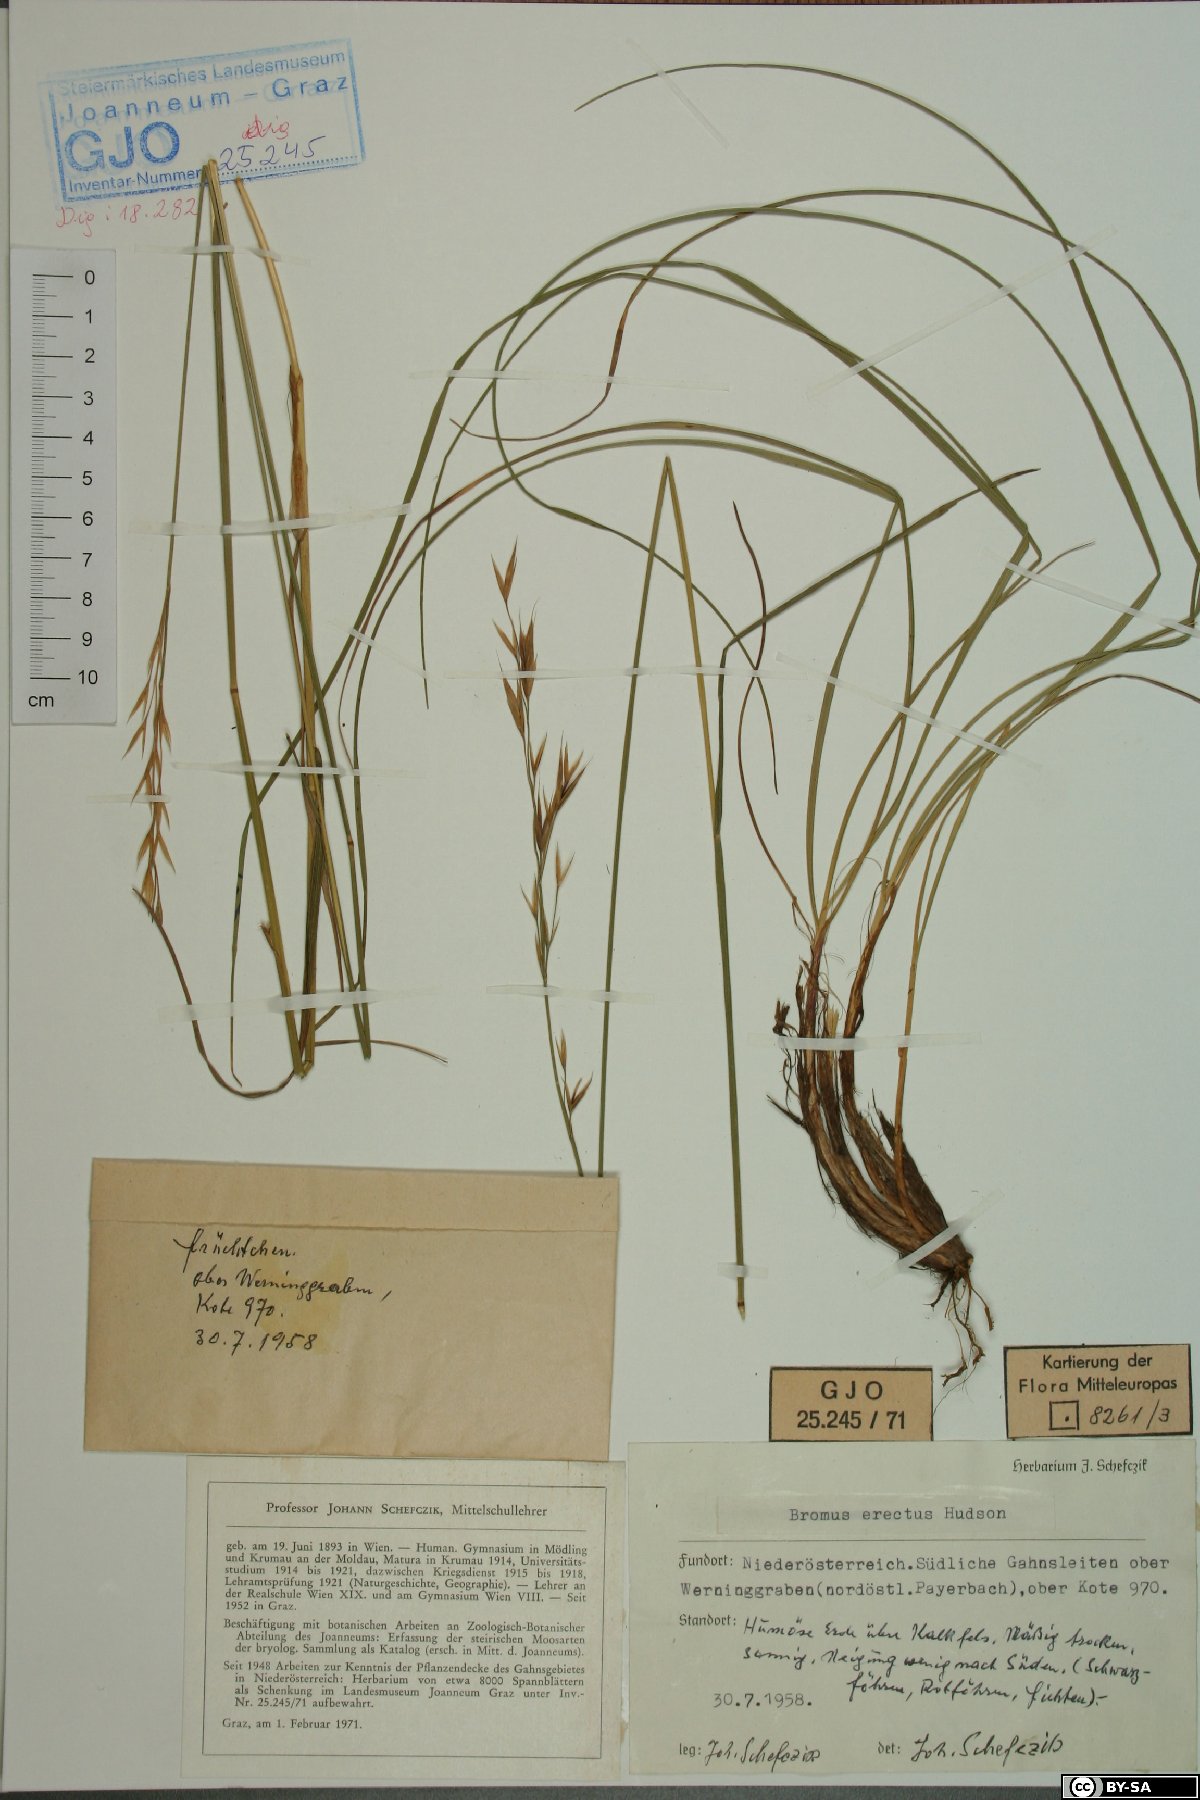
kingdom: Plantae
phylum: Tracheophyta
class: Liliopsida
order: Poales
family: Poaceae
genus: Bromus
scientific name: Bromus erectus
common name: Erect brome
